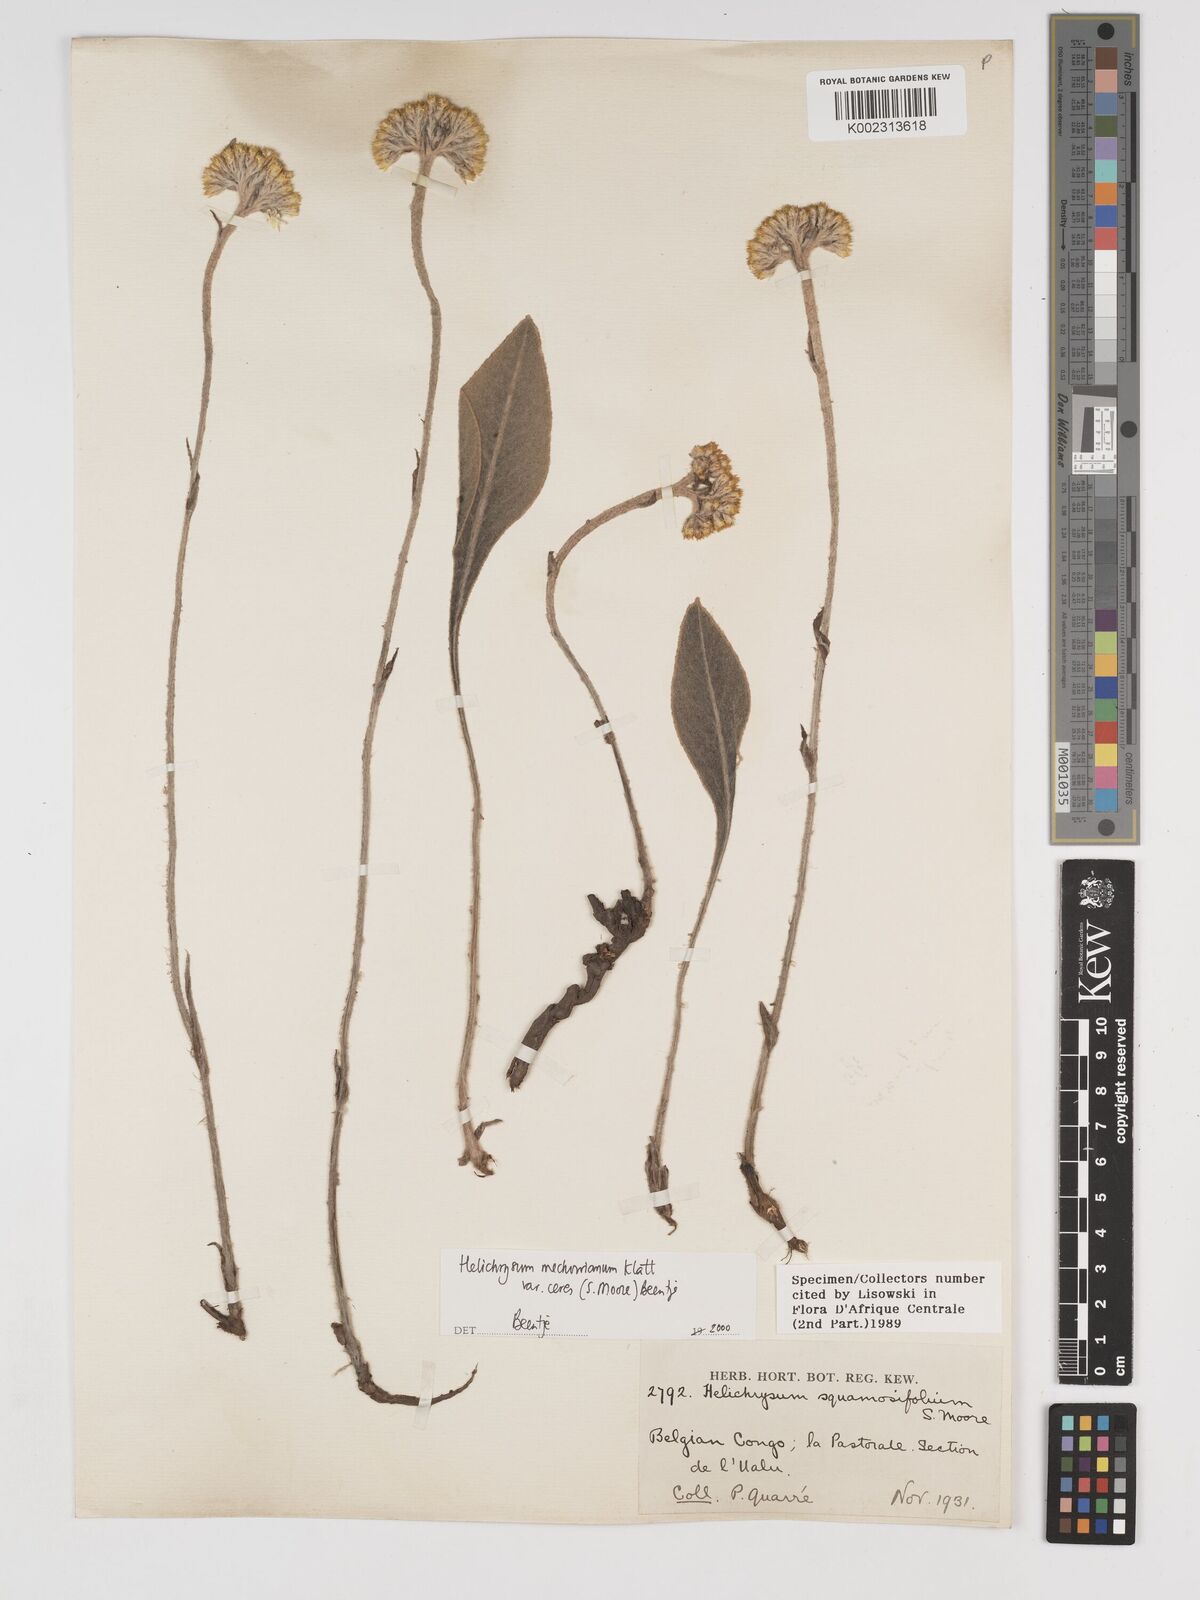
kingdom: Plantae
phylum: Tracheophyta
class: Magnoliopsida
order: Asterales
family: Asteraceae
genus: Helichrysum
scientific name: Helichrysum mechowianum
